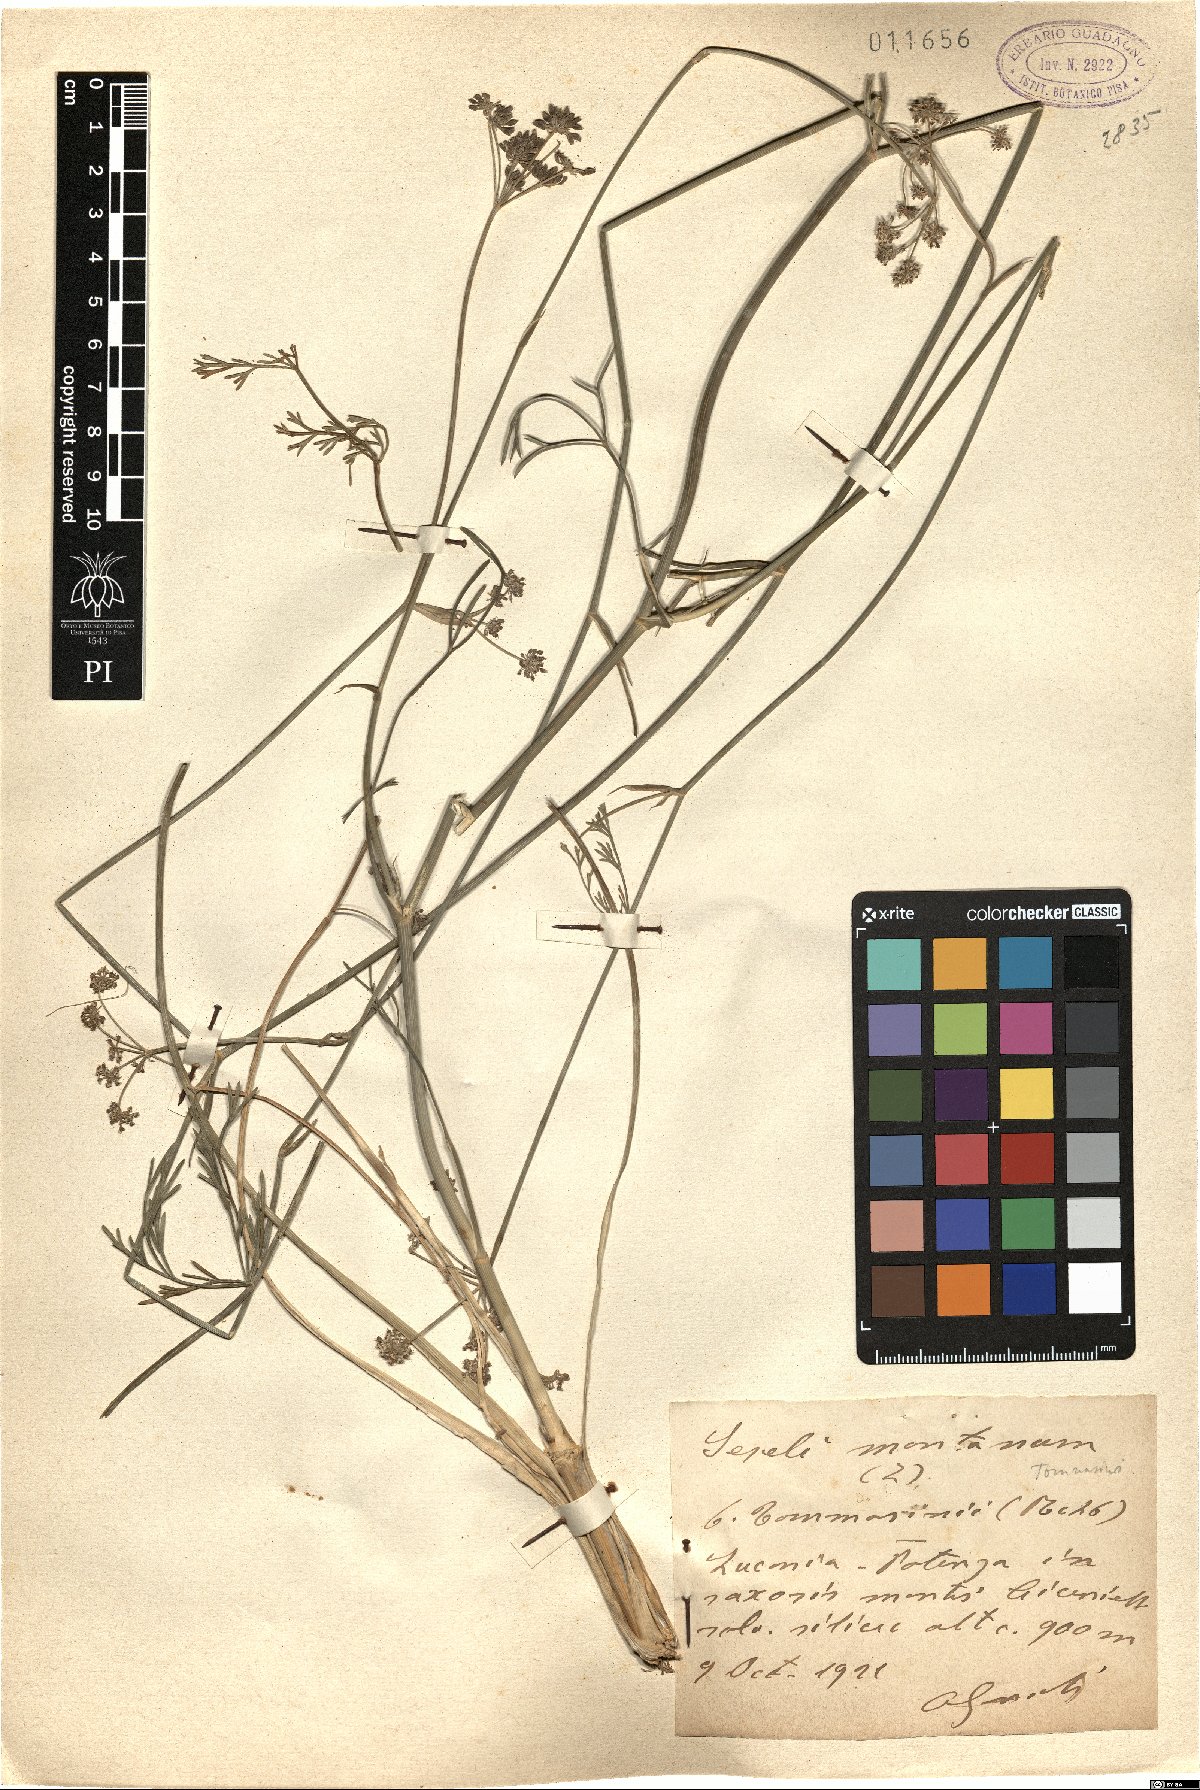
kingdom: Plantae
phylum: Tracheophyta
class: Magnoliopsida
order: Apiales
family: Apiaceae
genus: Seseli
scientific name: Seseli montanum
